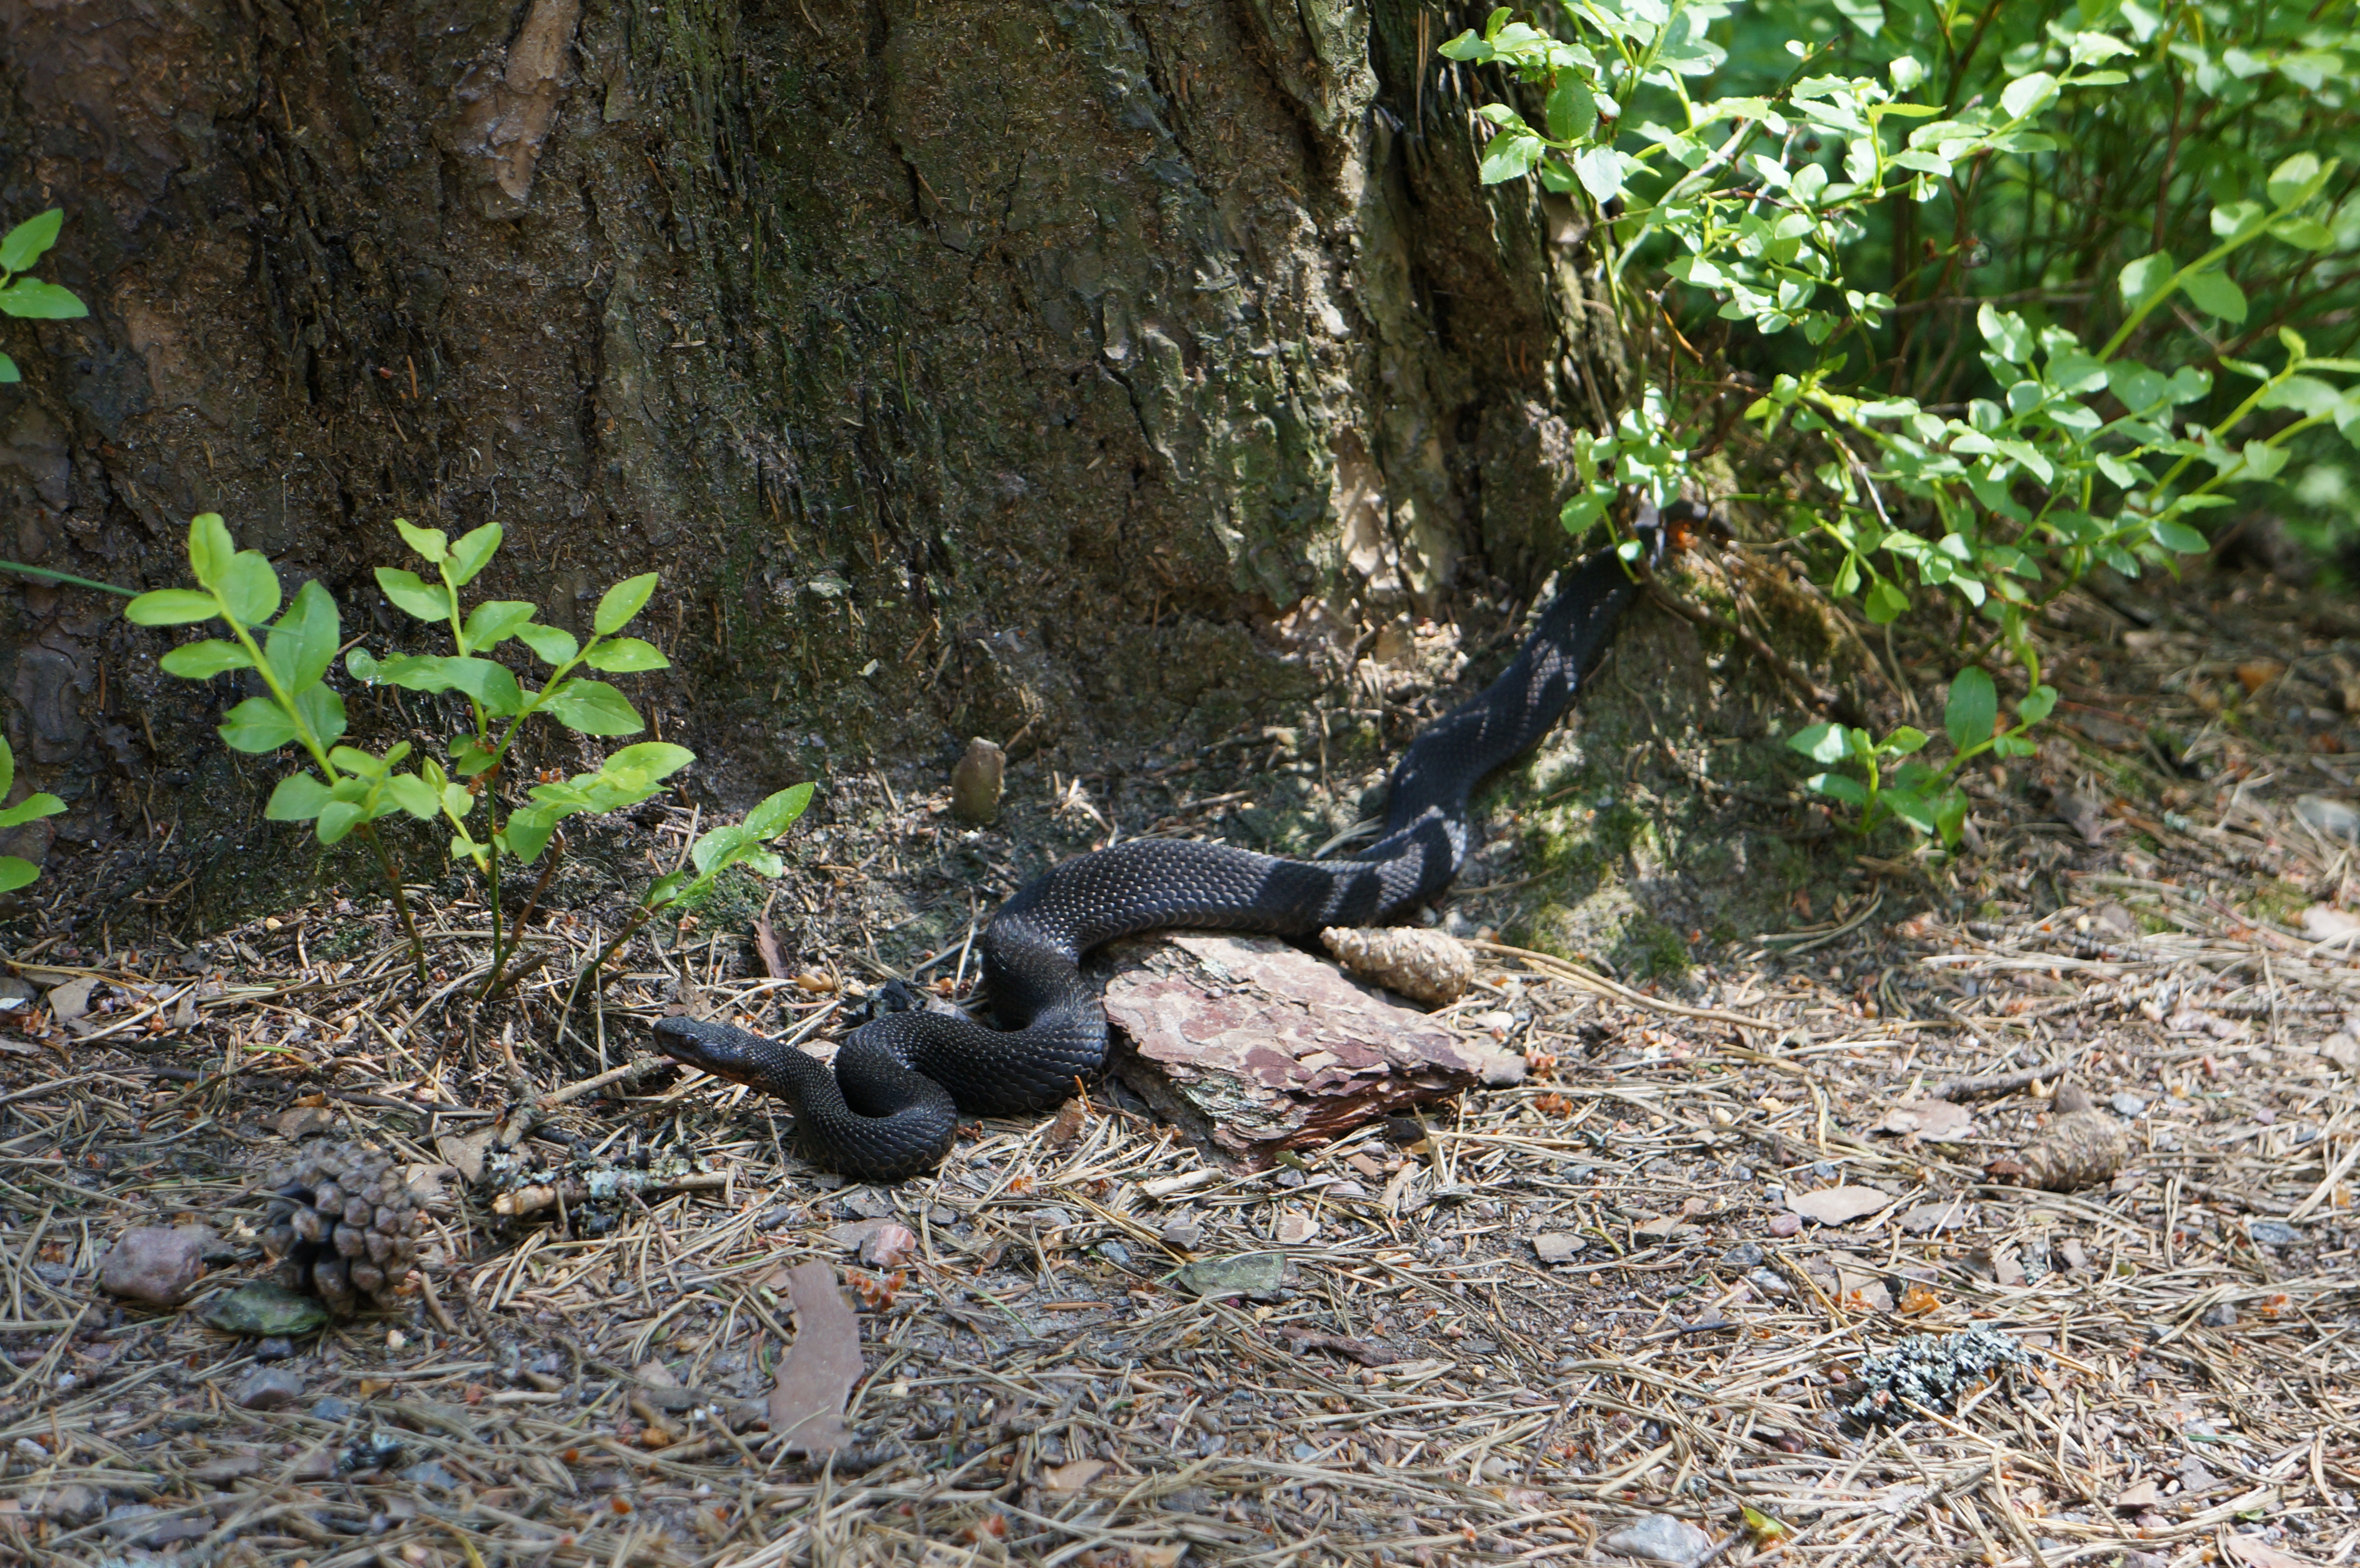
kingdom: Animalia
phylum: Chordata
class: Squamata
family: Viperidae
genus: Vipera
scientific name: Vipera berus
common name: Adder
